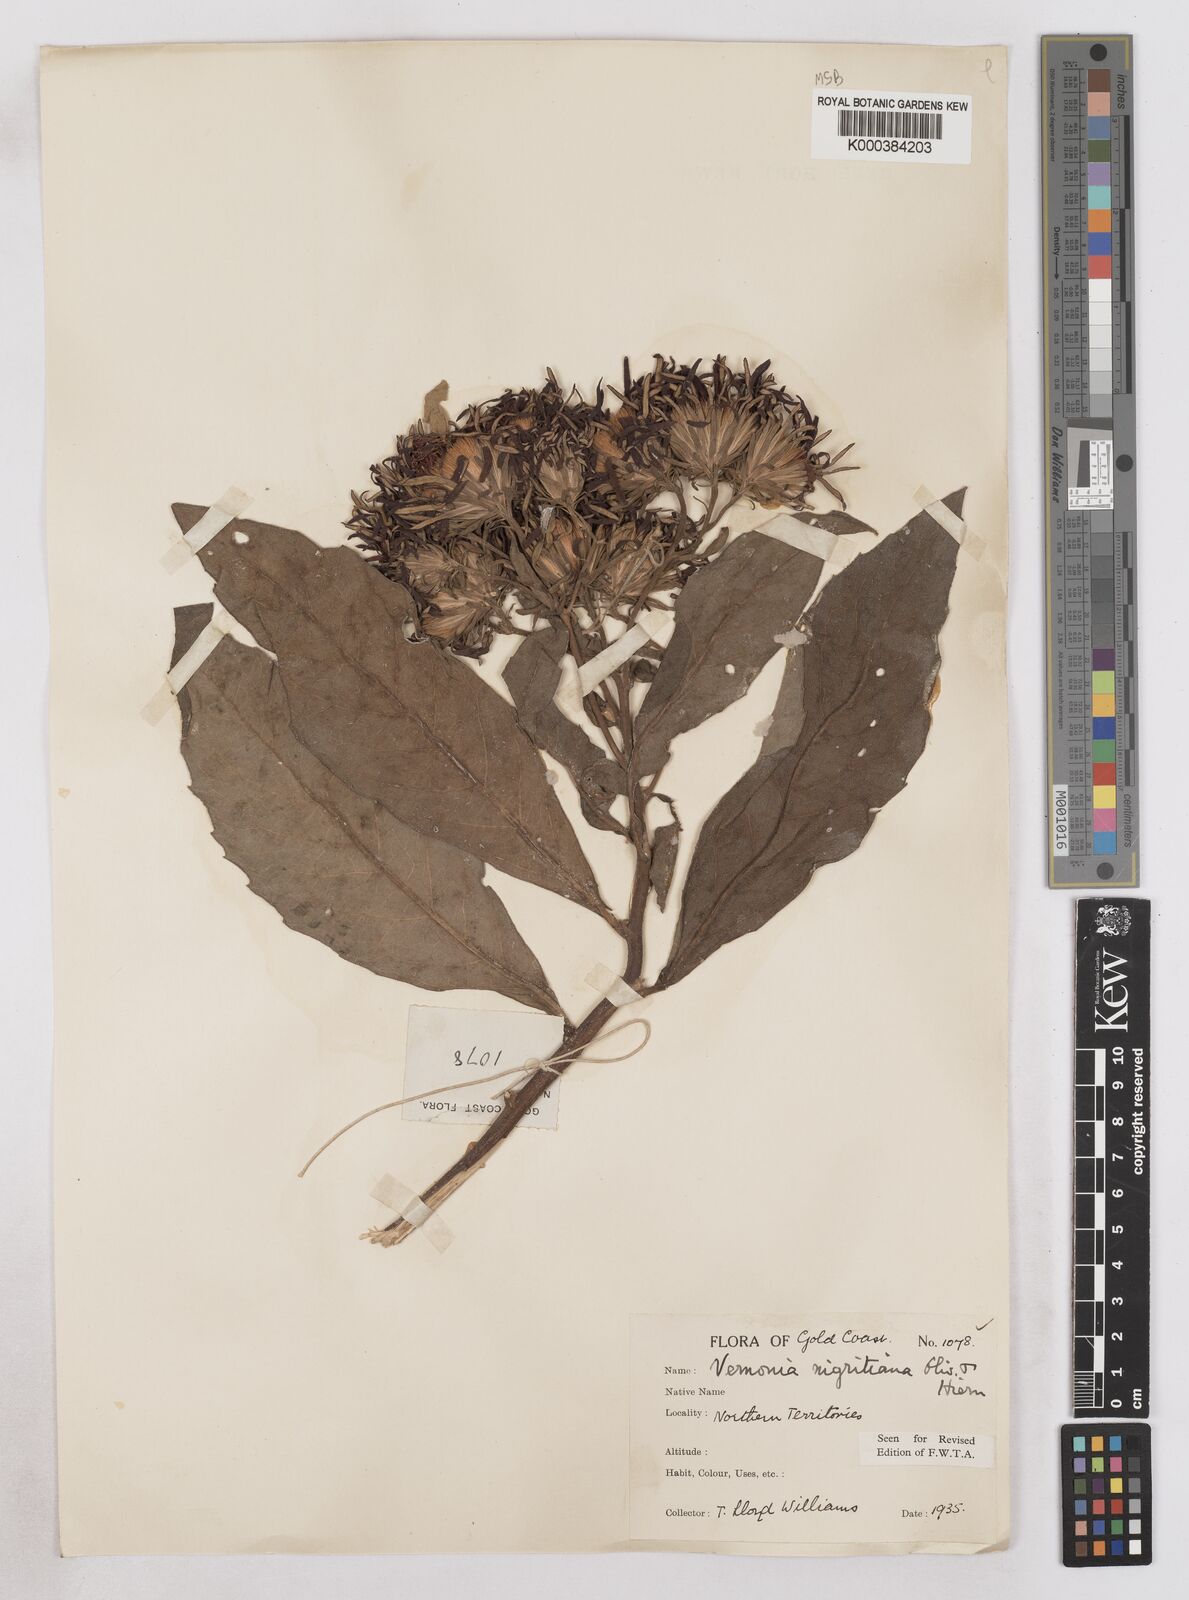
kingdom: Plantae
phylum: Tracheophyta
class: Magnoliopsida
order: Asterales
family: Asteraceae
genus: Linzia
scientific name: Linzia nigritiana
